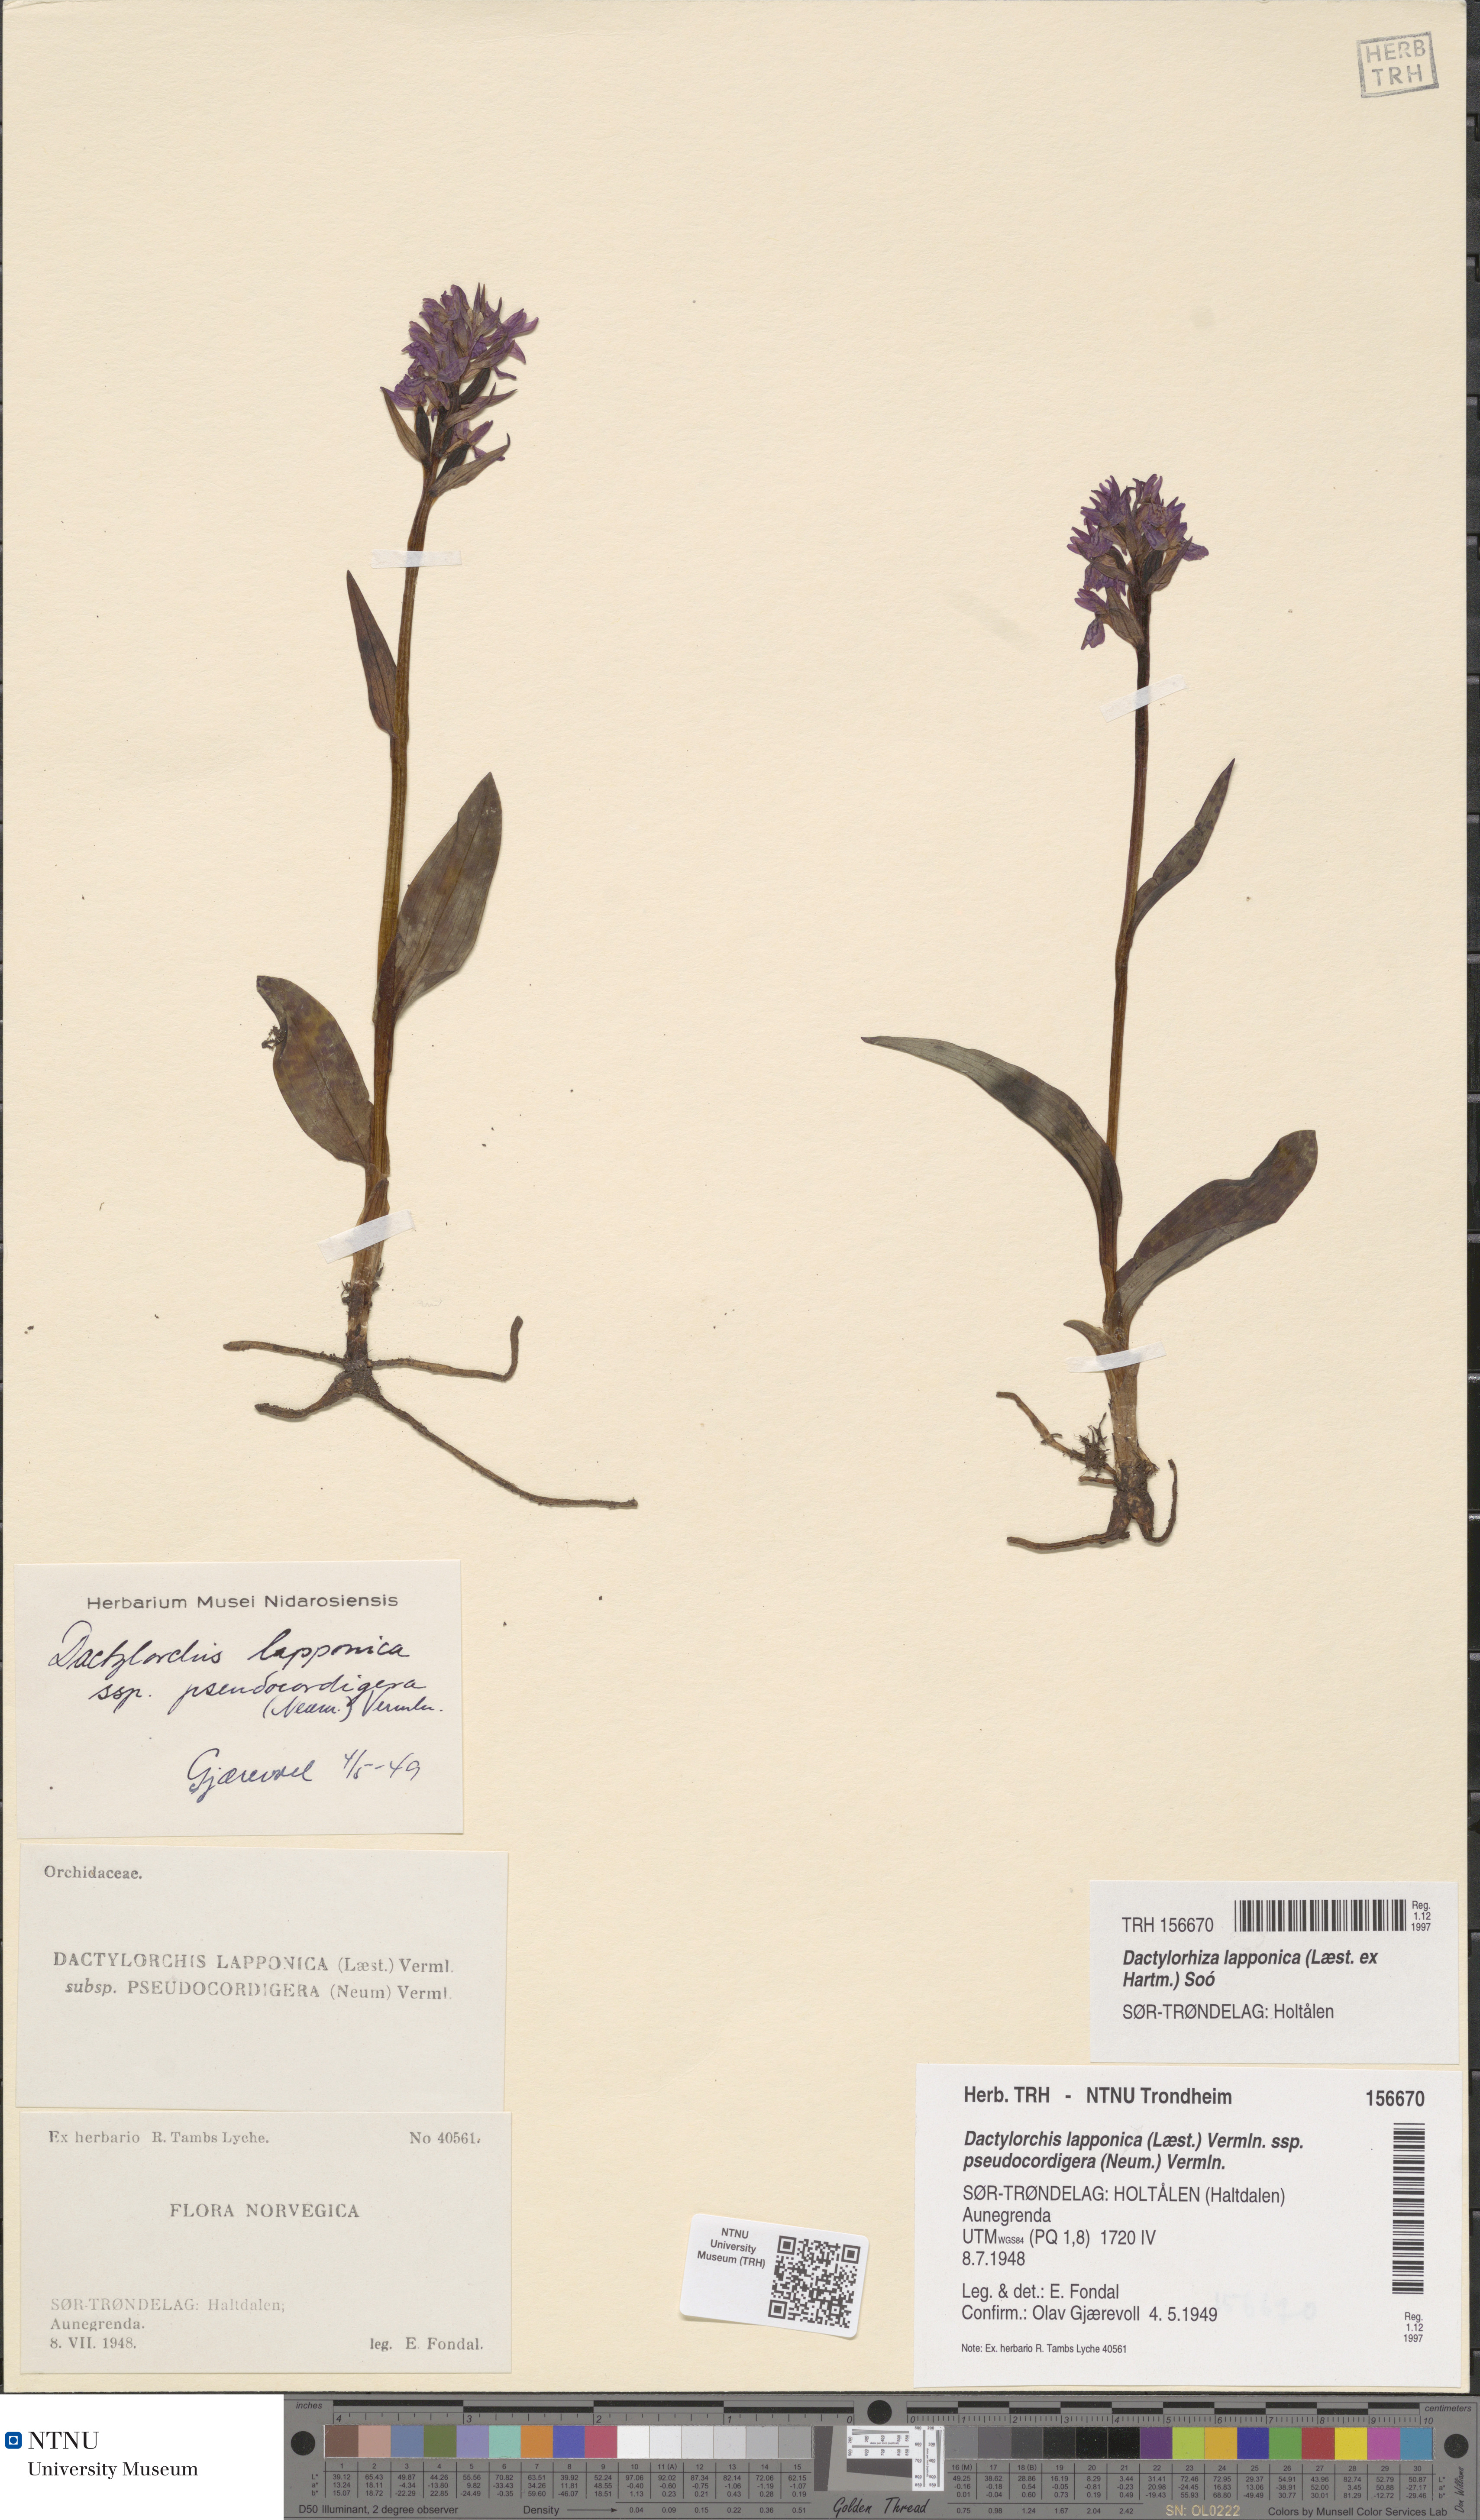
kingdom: Plantae
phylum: Tracheophyta
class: Liliopsida
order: Asparagales
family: Orchidaceae
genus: Dactylorhiza
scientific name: Dactylorhiza majalis
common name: Marsh orchid
